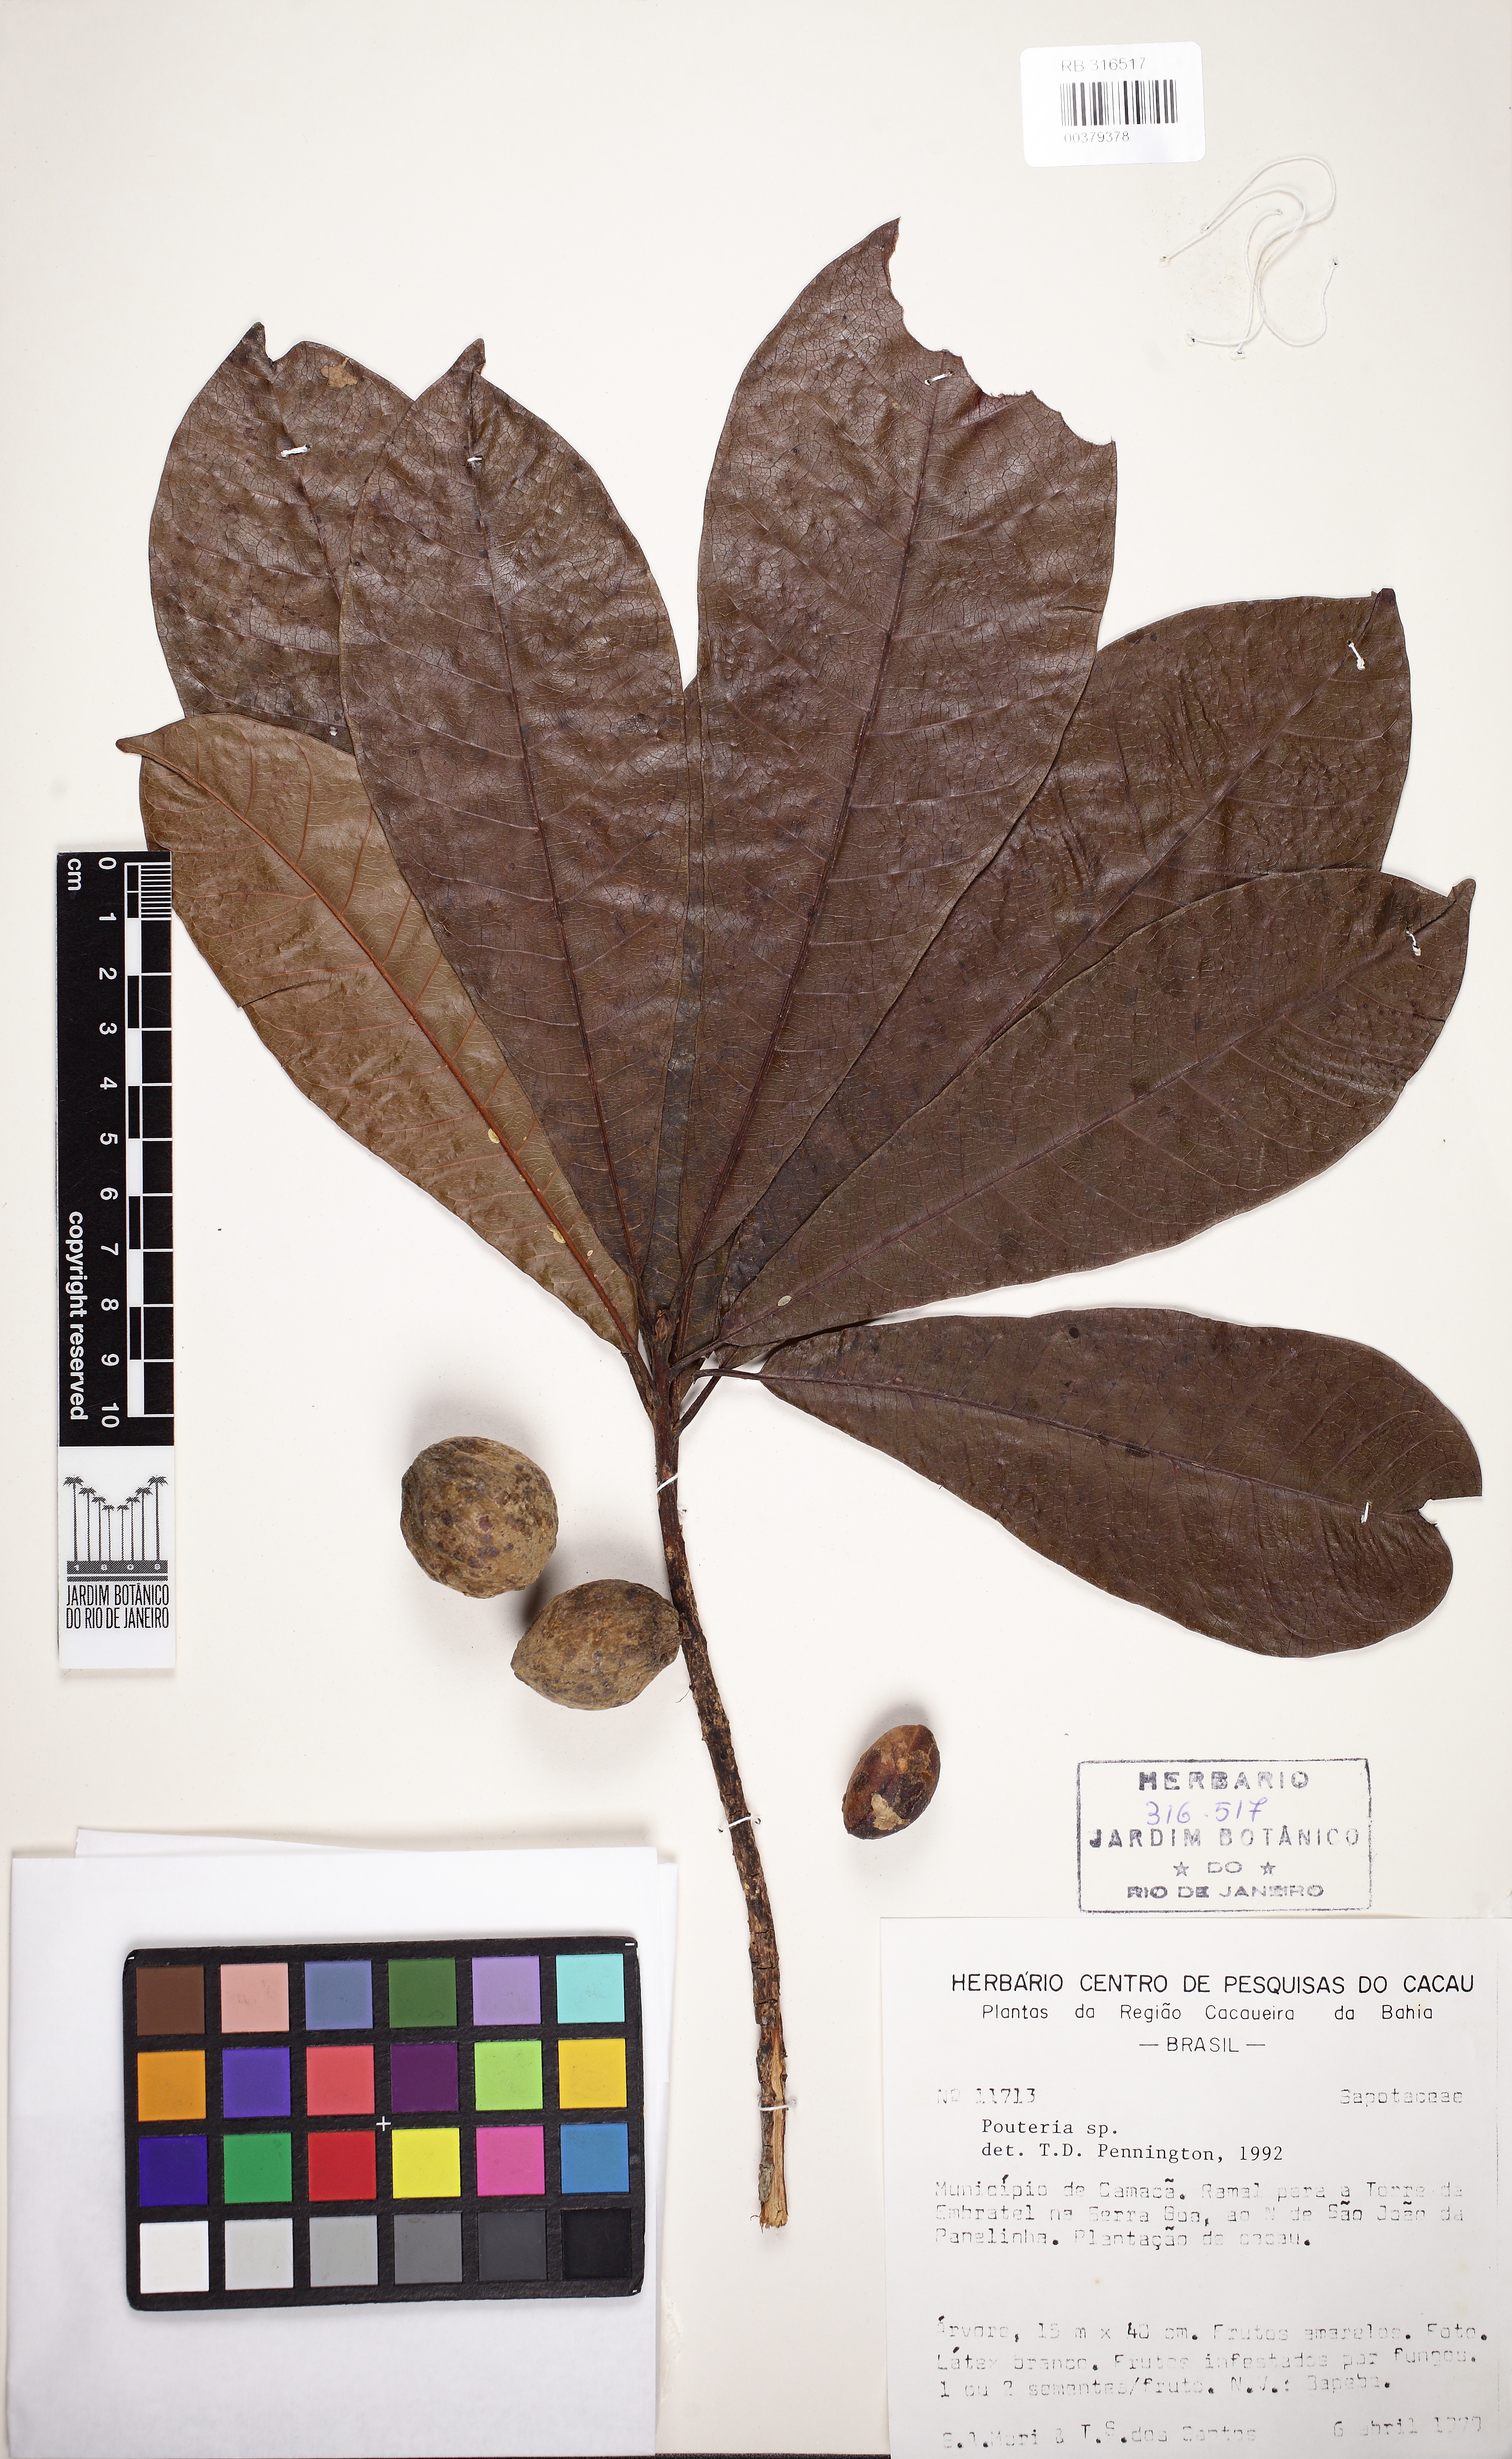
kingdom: Plantae
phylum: Tracheophyta
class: Magnoliopsida
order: Ericales
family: Sapotaceae
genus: Pouteria
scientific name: Pouteria butyrocarpa
